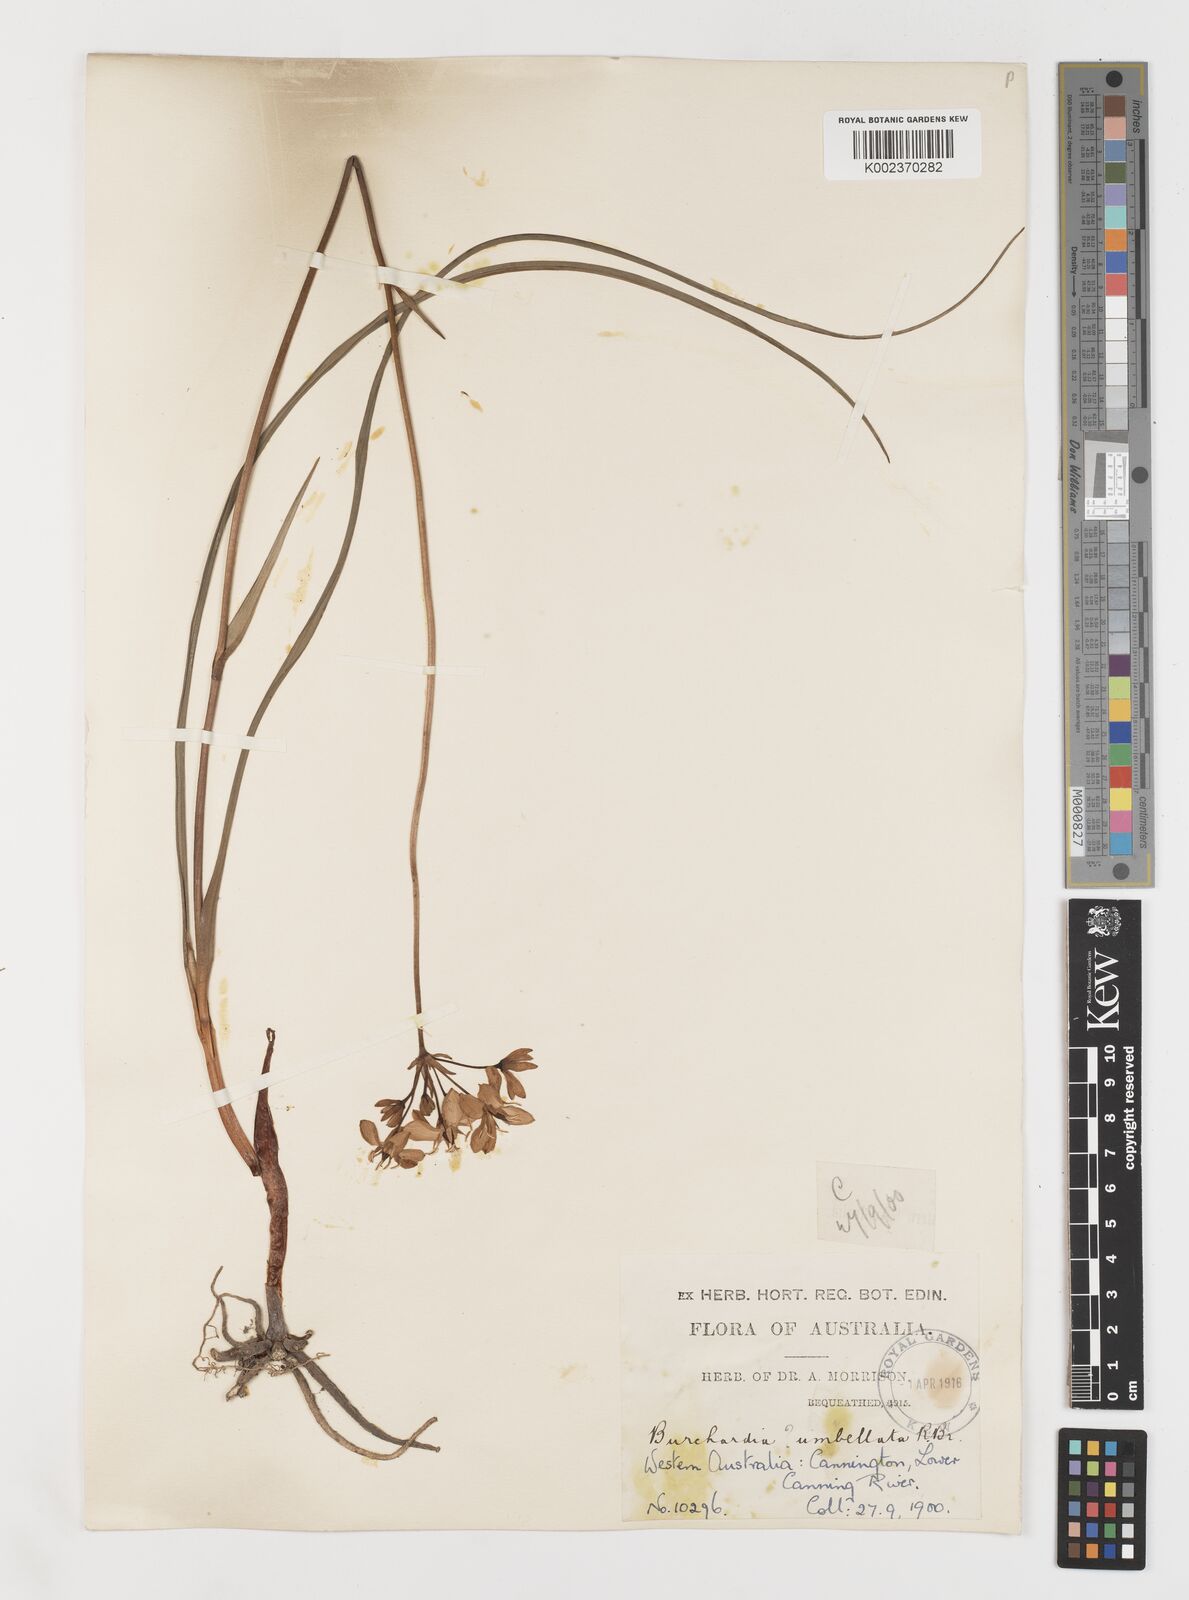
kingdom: Plantae
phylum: Tracheophyta
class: Liliopsida
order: Liliales
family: Colchicaceae
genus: Burchardia
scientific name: Burchardia umbellata
